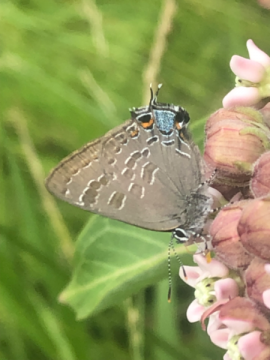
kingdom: Animalia
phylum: Arthropoda
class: Insecta
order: Lepidoptera
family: Lycaenidae
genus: Strymon
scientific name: Strymon caryaevorus
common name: Hickory Hairstreak
